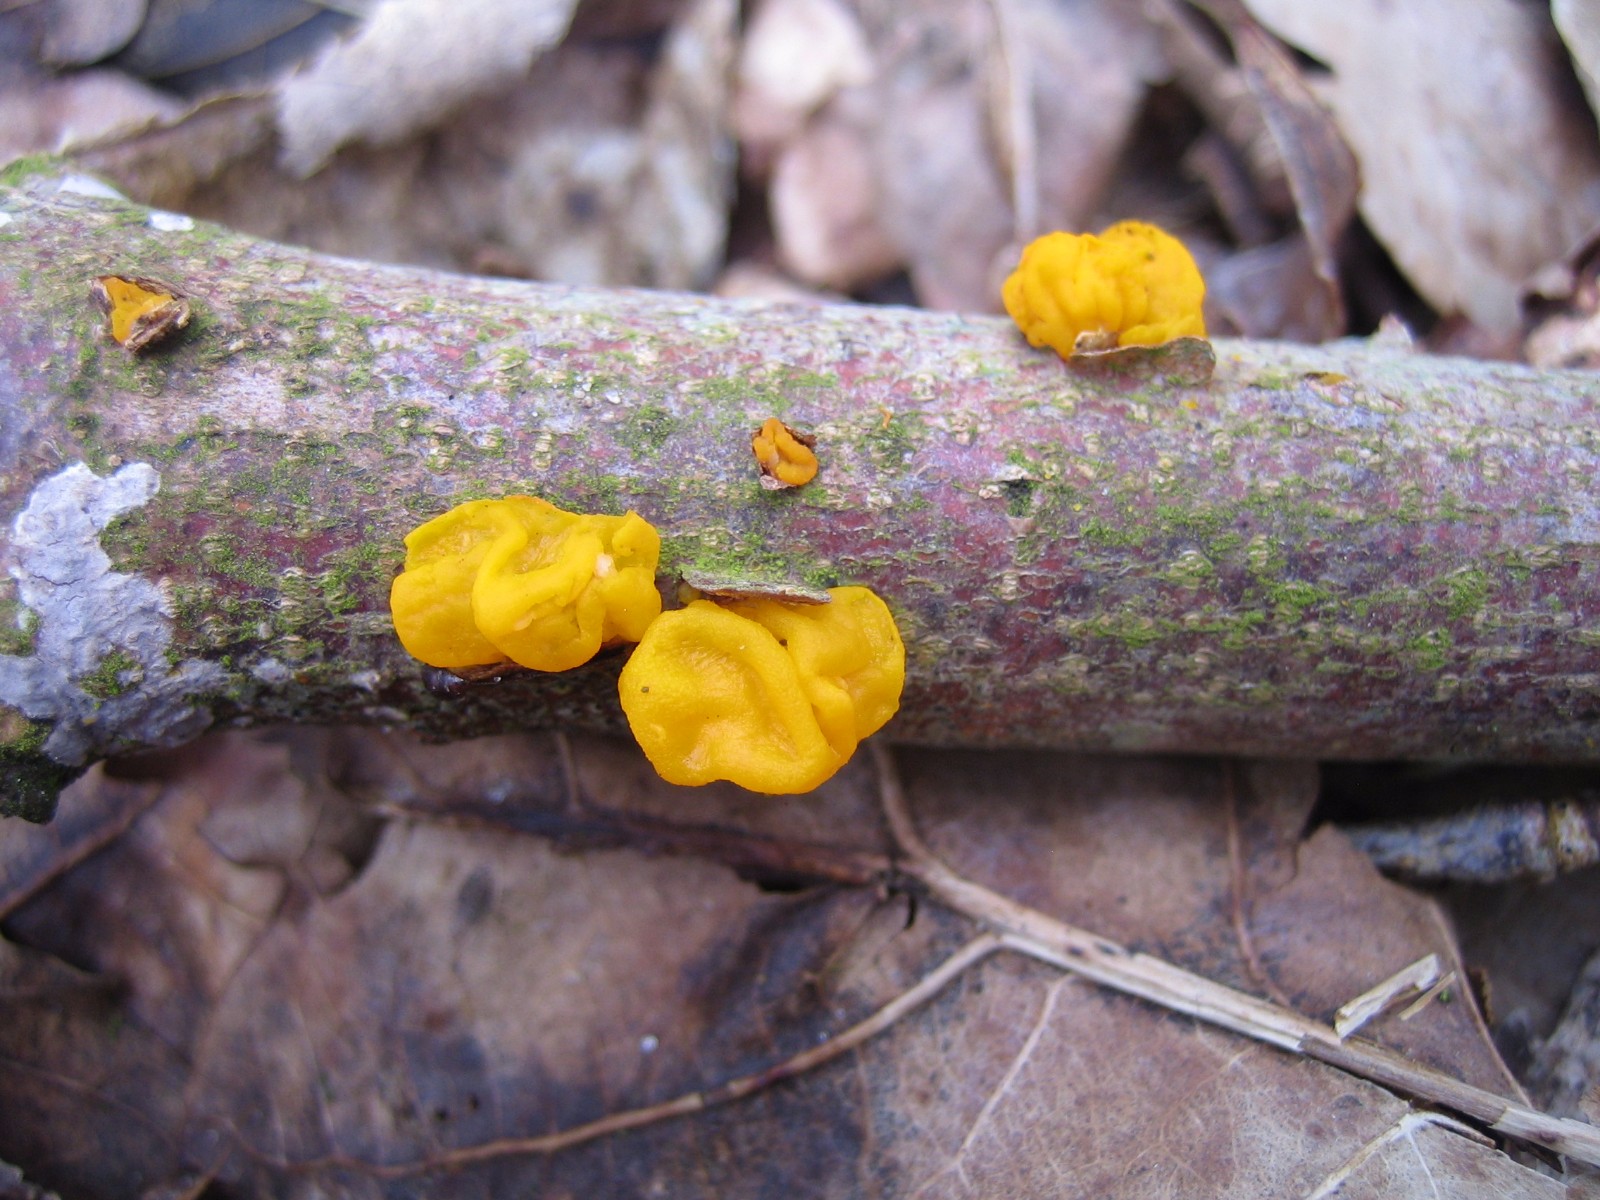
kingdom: Fungi
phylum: Basidiomycota
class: Tremellomycetes
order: Tremellales
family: Tremellaceae
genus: Tremella
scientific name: Tremella mesenterica
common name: gul bævresvamp
